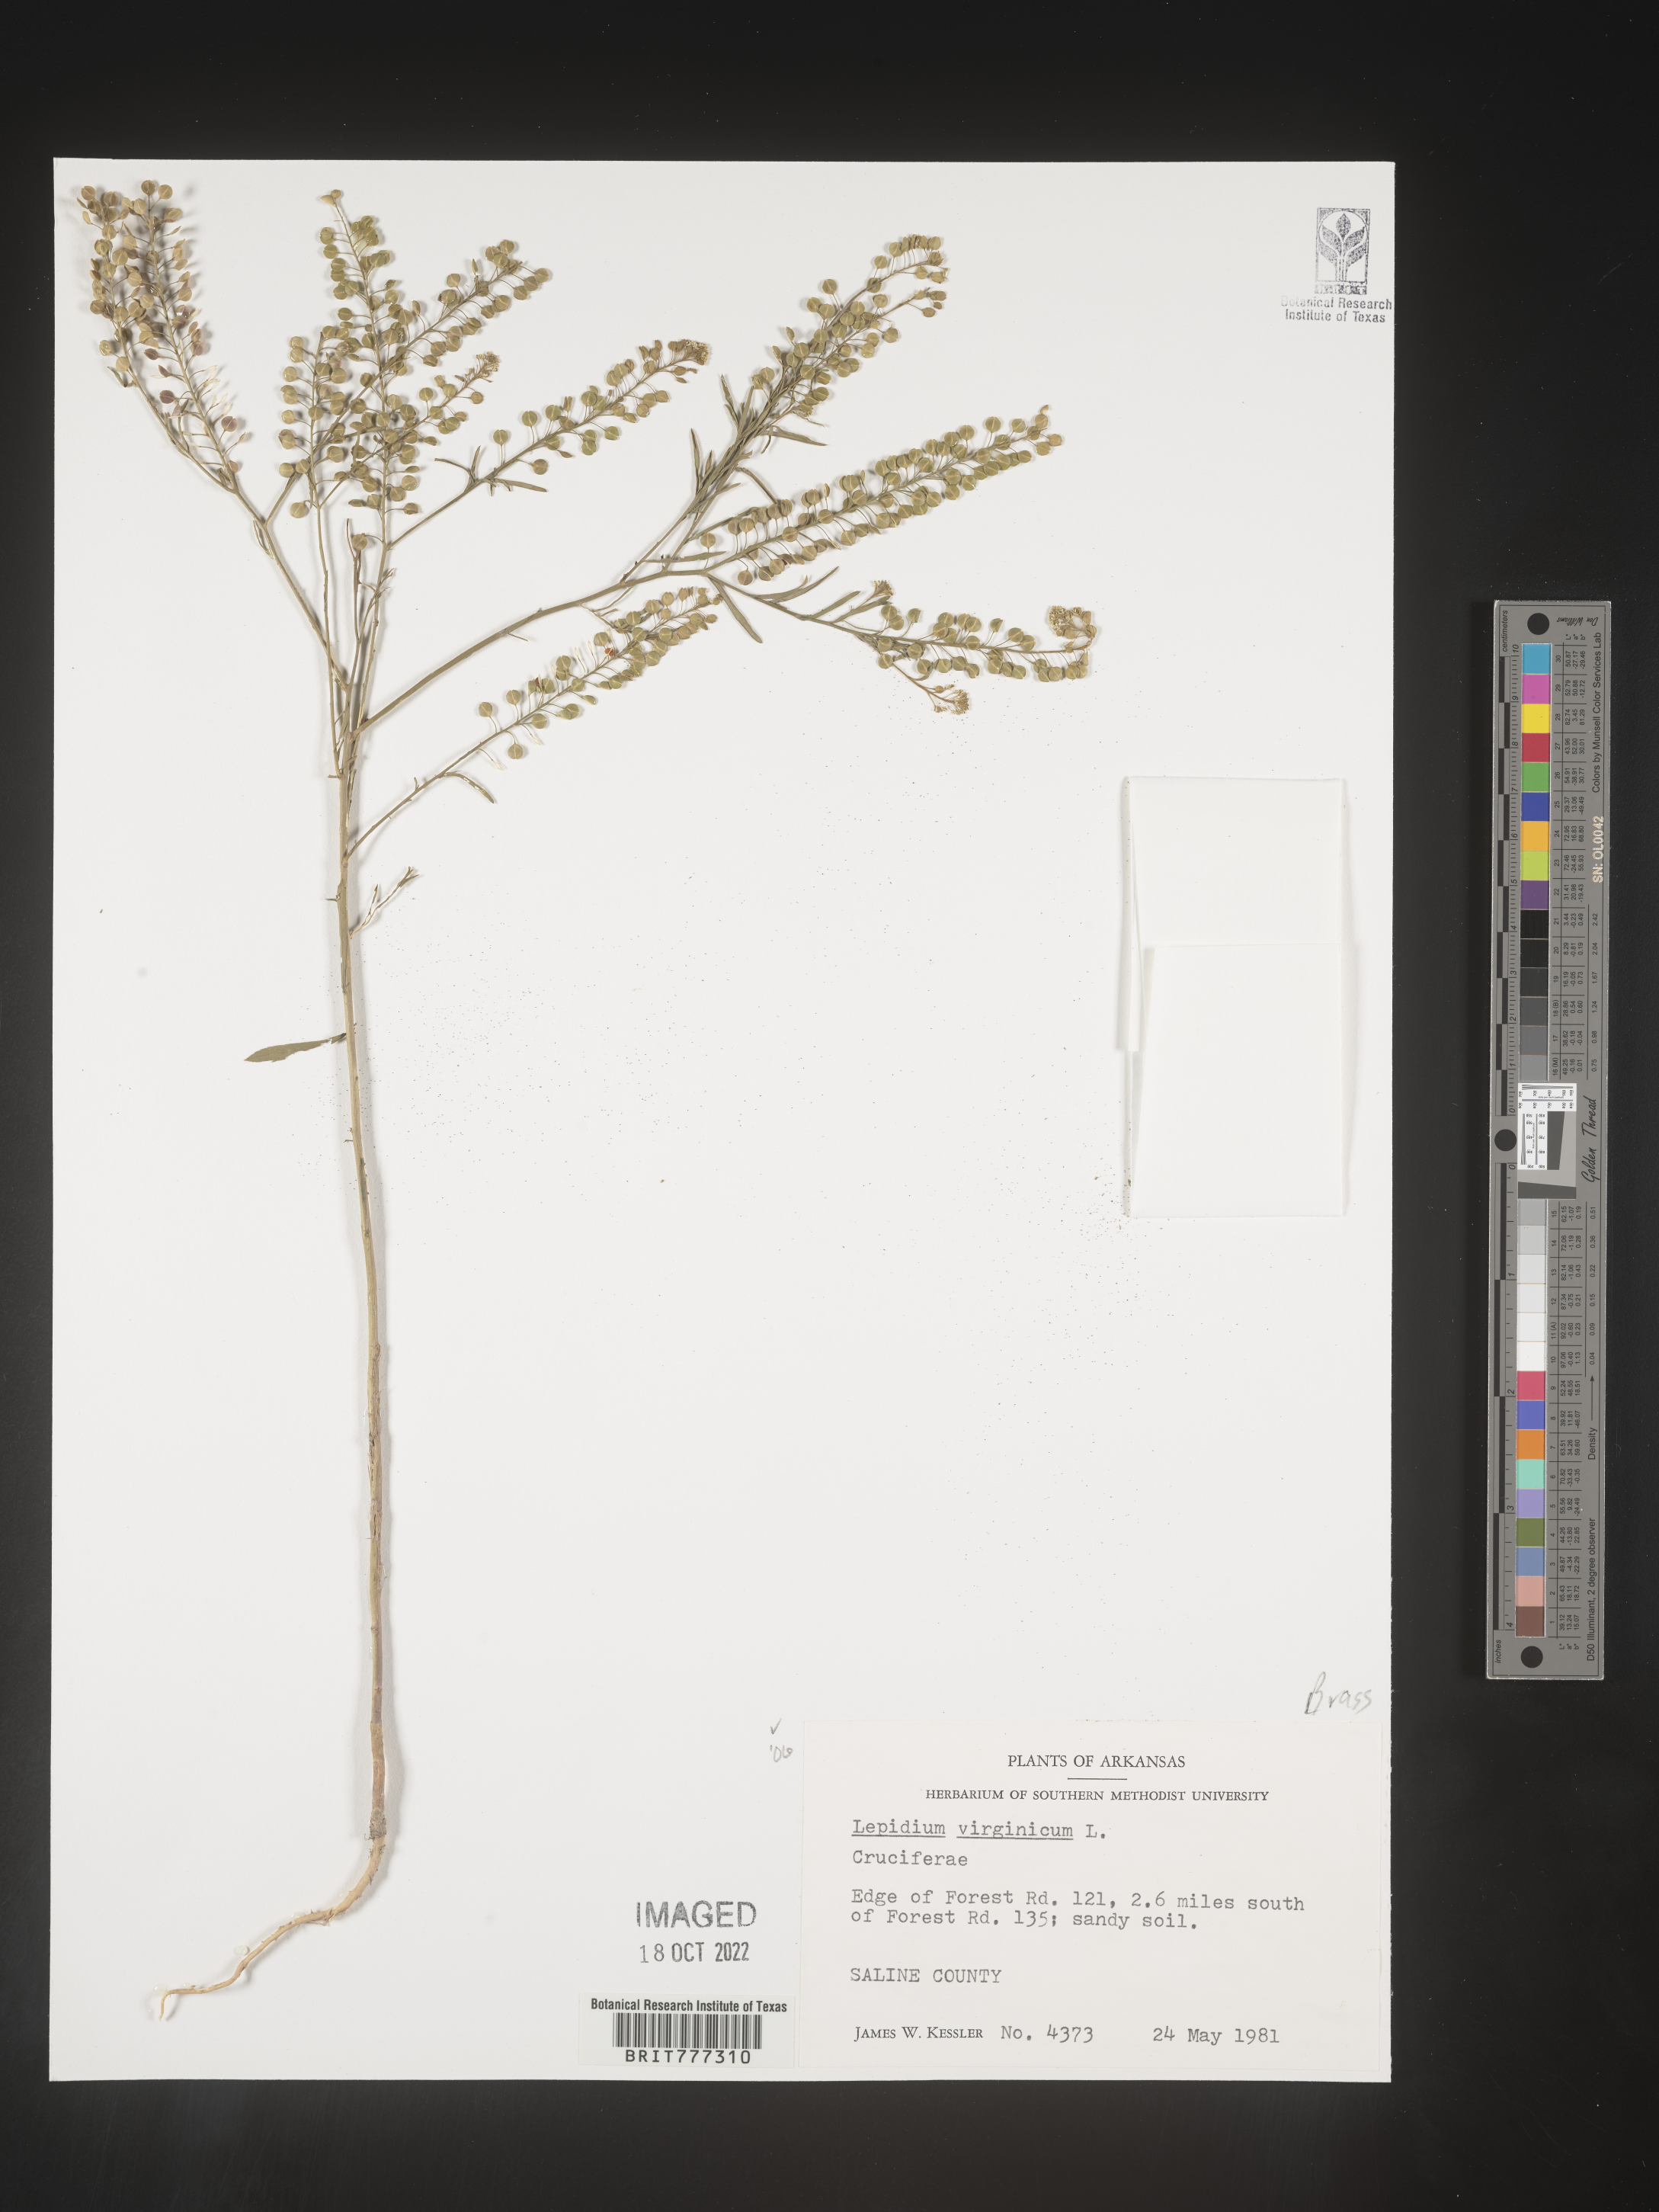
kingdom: Plantae
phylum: Tracheophyta
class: Magnoliopsida
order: Brassicales
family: Brassicaceae
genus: Lepidium
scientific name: Lepidium virginicum
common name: Least pepperwort
